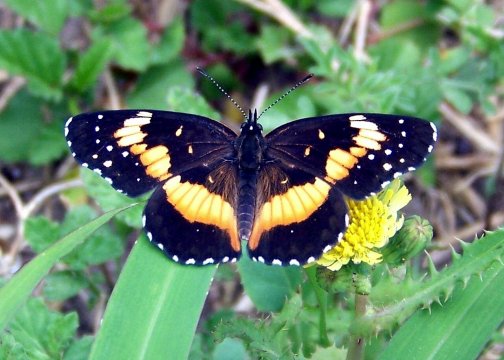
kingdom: Animalia
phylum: Arthropoda
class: Insecta
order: Lepidoptera
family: Nymphalidae
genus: Chlosyne
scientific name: Chlosyne lacinia
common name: Bordered Patch
